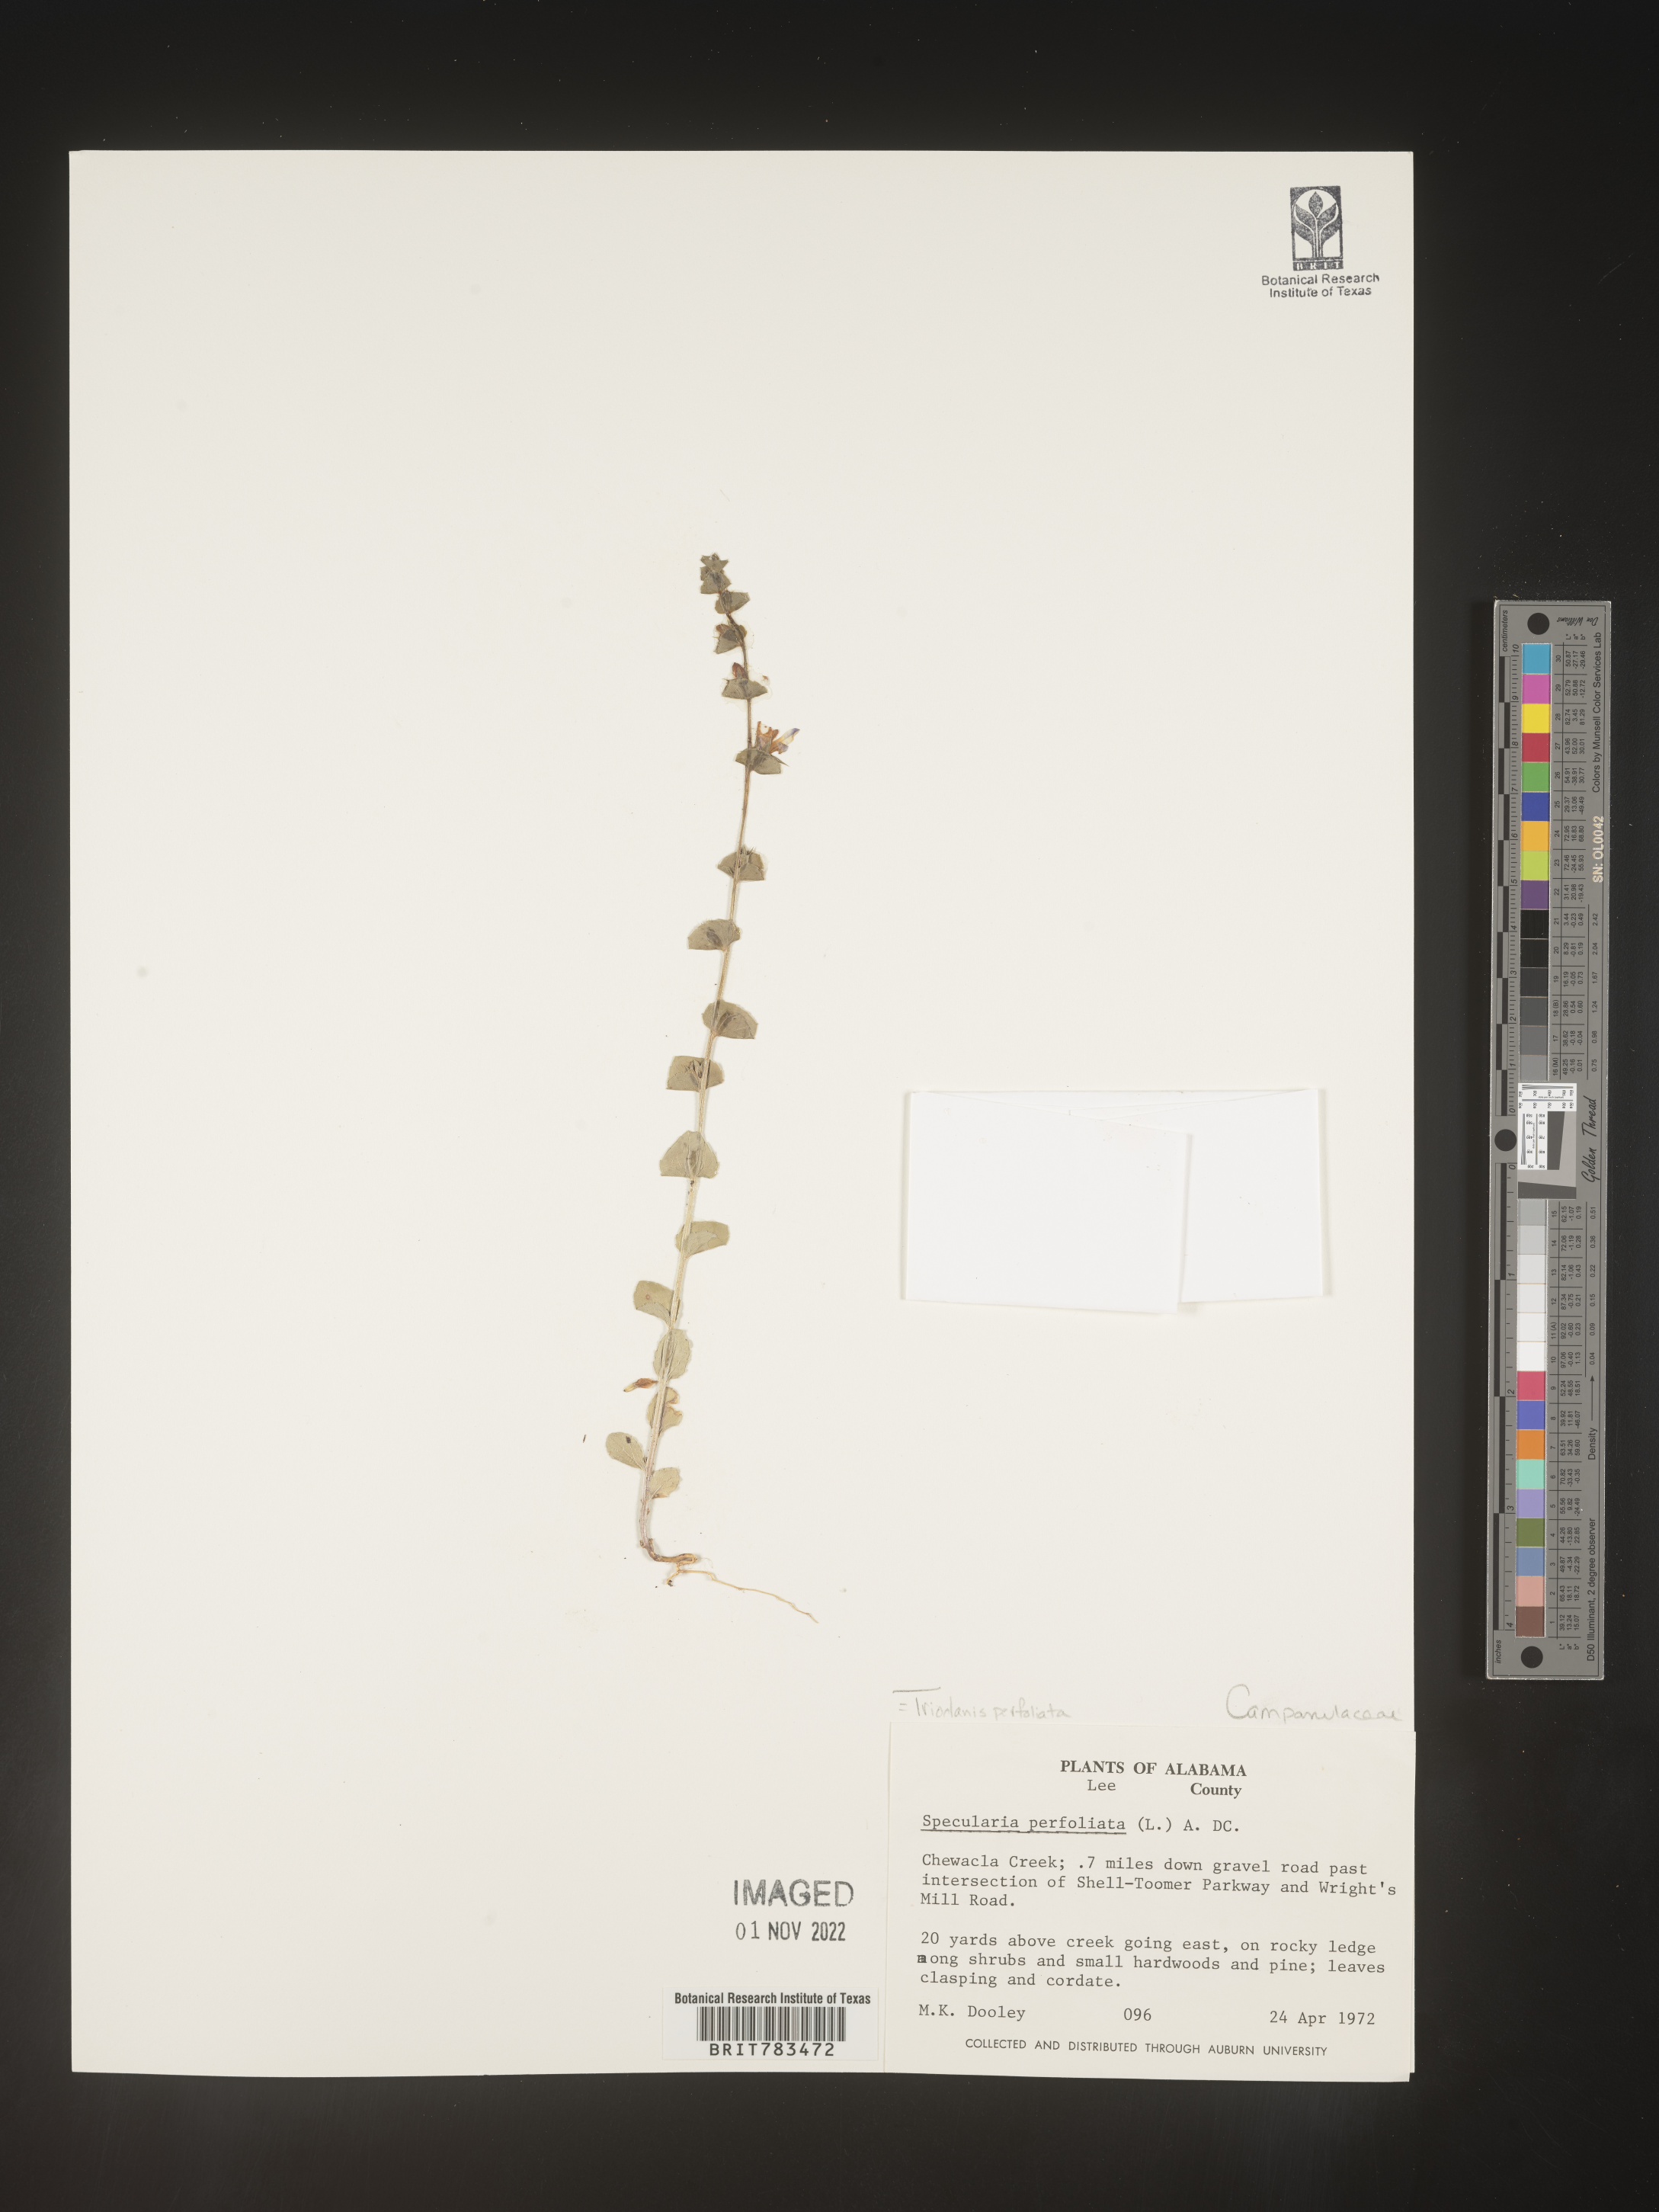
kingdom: Plantae
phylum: Tracheophyta
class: Magnoliopsida
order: Asterales
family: Campanulaceae
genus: Triodanis
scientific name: Triodanis perfoliata
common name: Clasping venus' looking-glass
